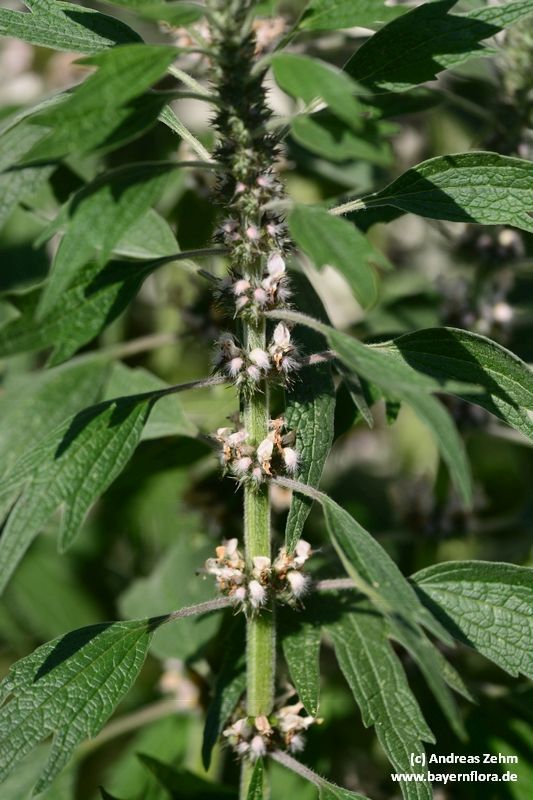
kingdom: Plantae
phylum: Tracheophyta
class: Magnoliopsida
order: Lamiales
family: Lamiaceae
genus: Leonurus
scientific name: Leonurus quinquelobatus
